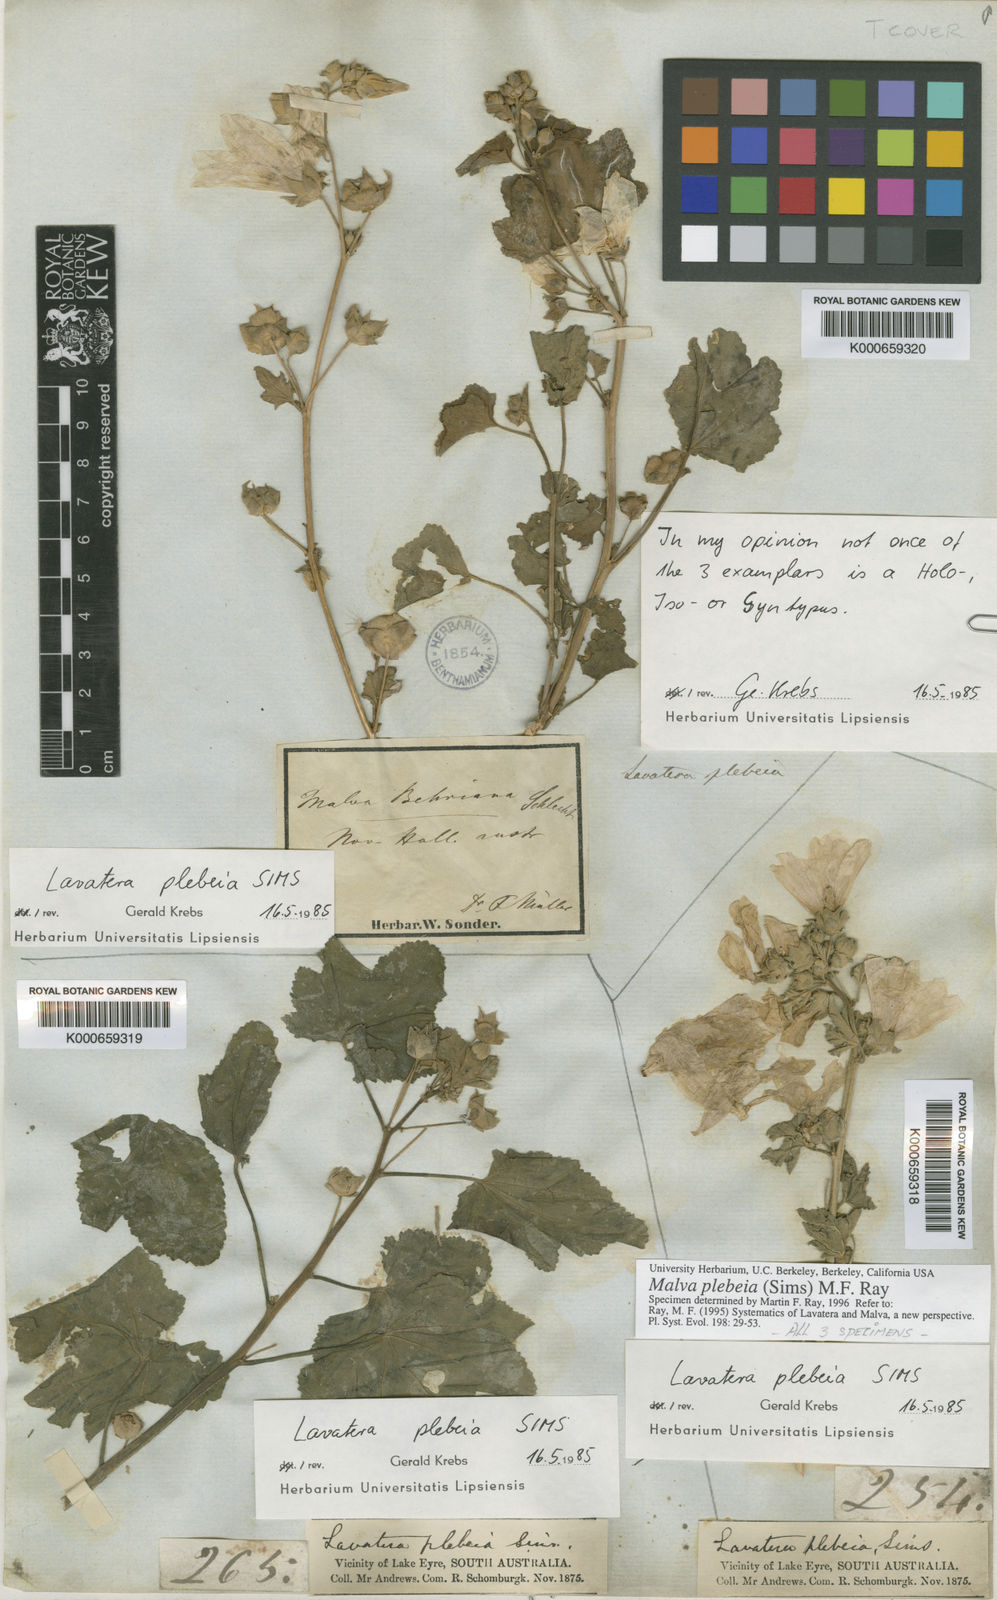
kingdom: Plantae
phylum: Tracheophyta
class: Magnoliopsida
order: Malvales
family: Malvaceae
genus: Malva
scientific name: Malva
